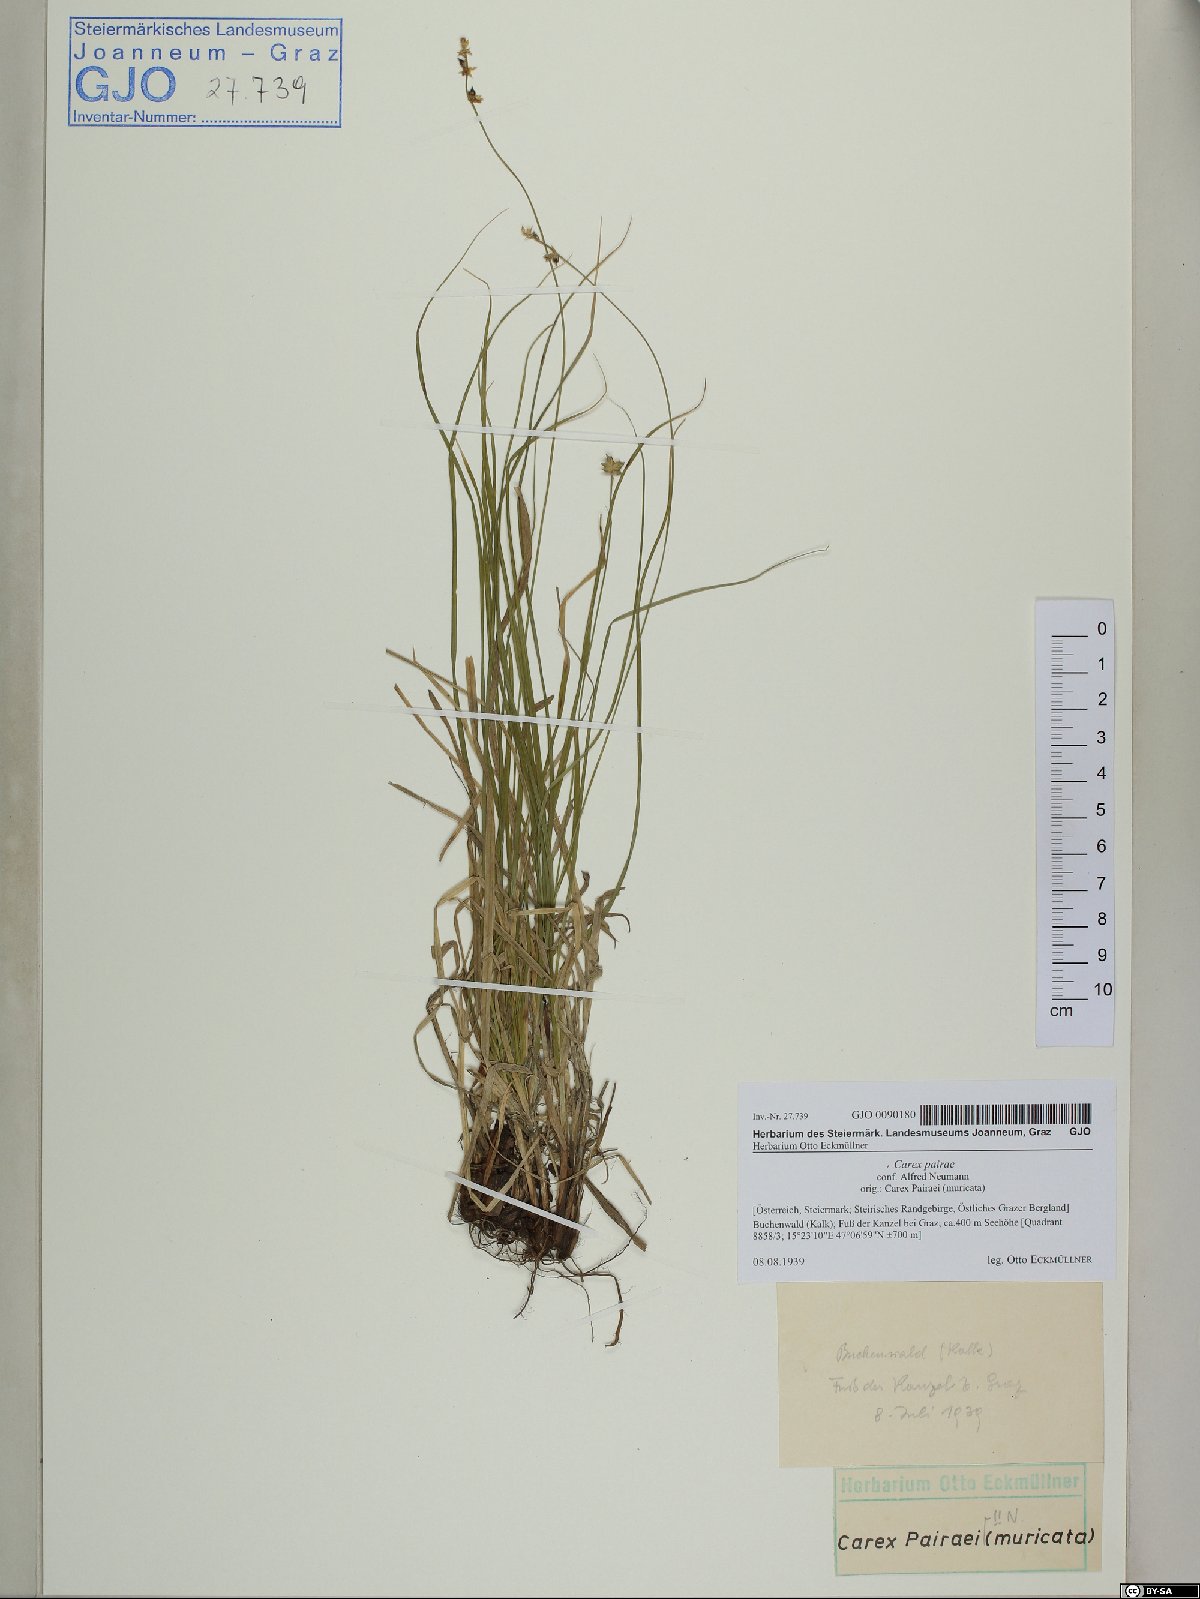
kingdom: Plantae
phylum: Tracheophyta
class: Liliopsida
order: Poales
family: Cyperaceae
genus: Carex
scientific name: Carex pairae
